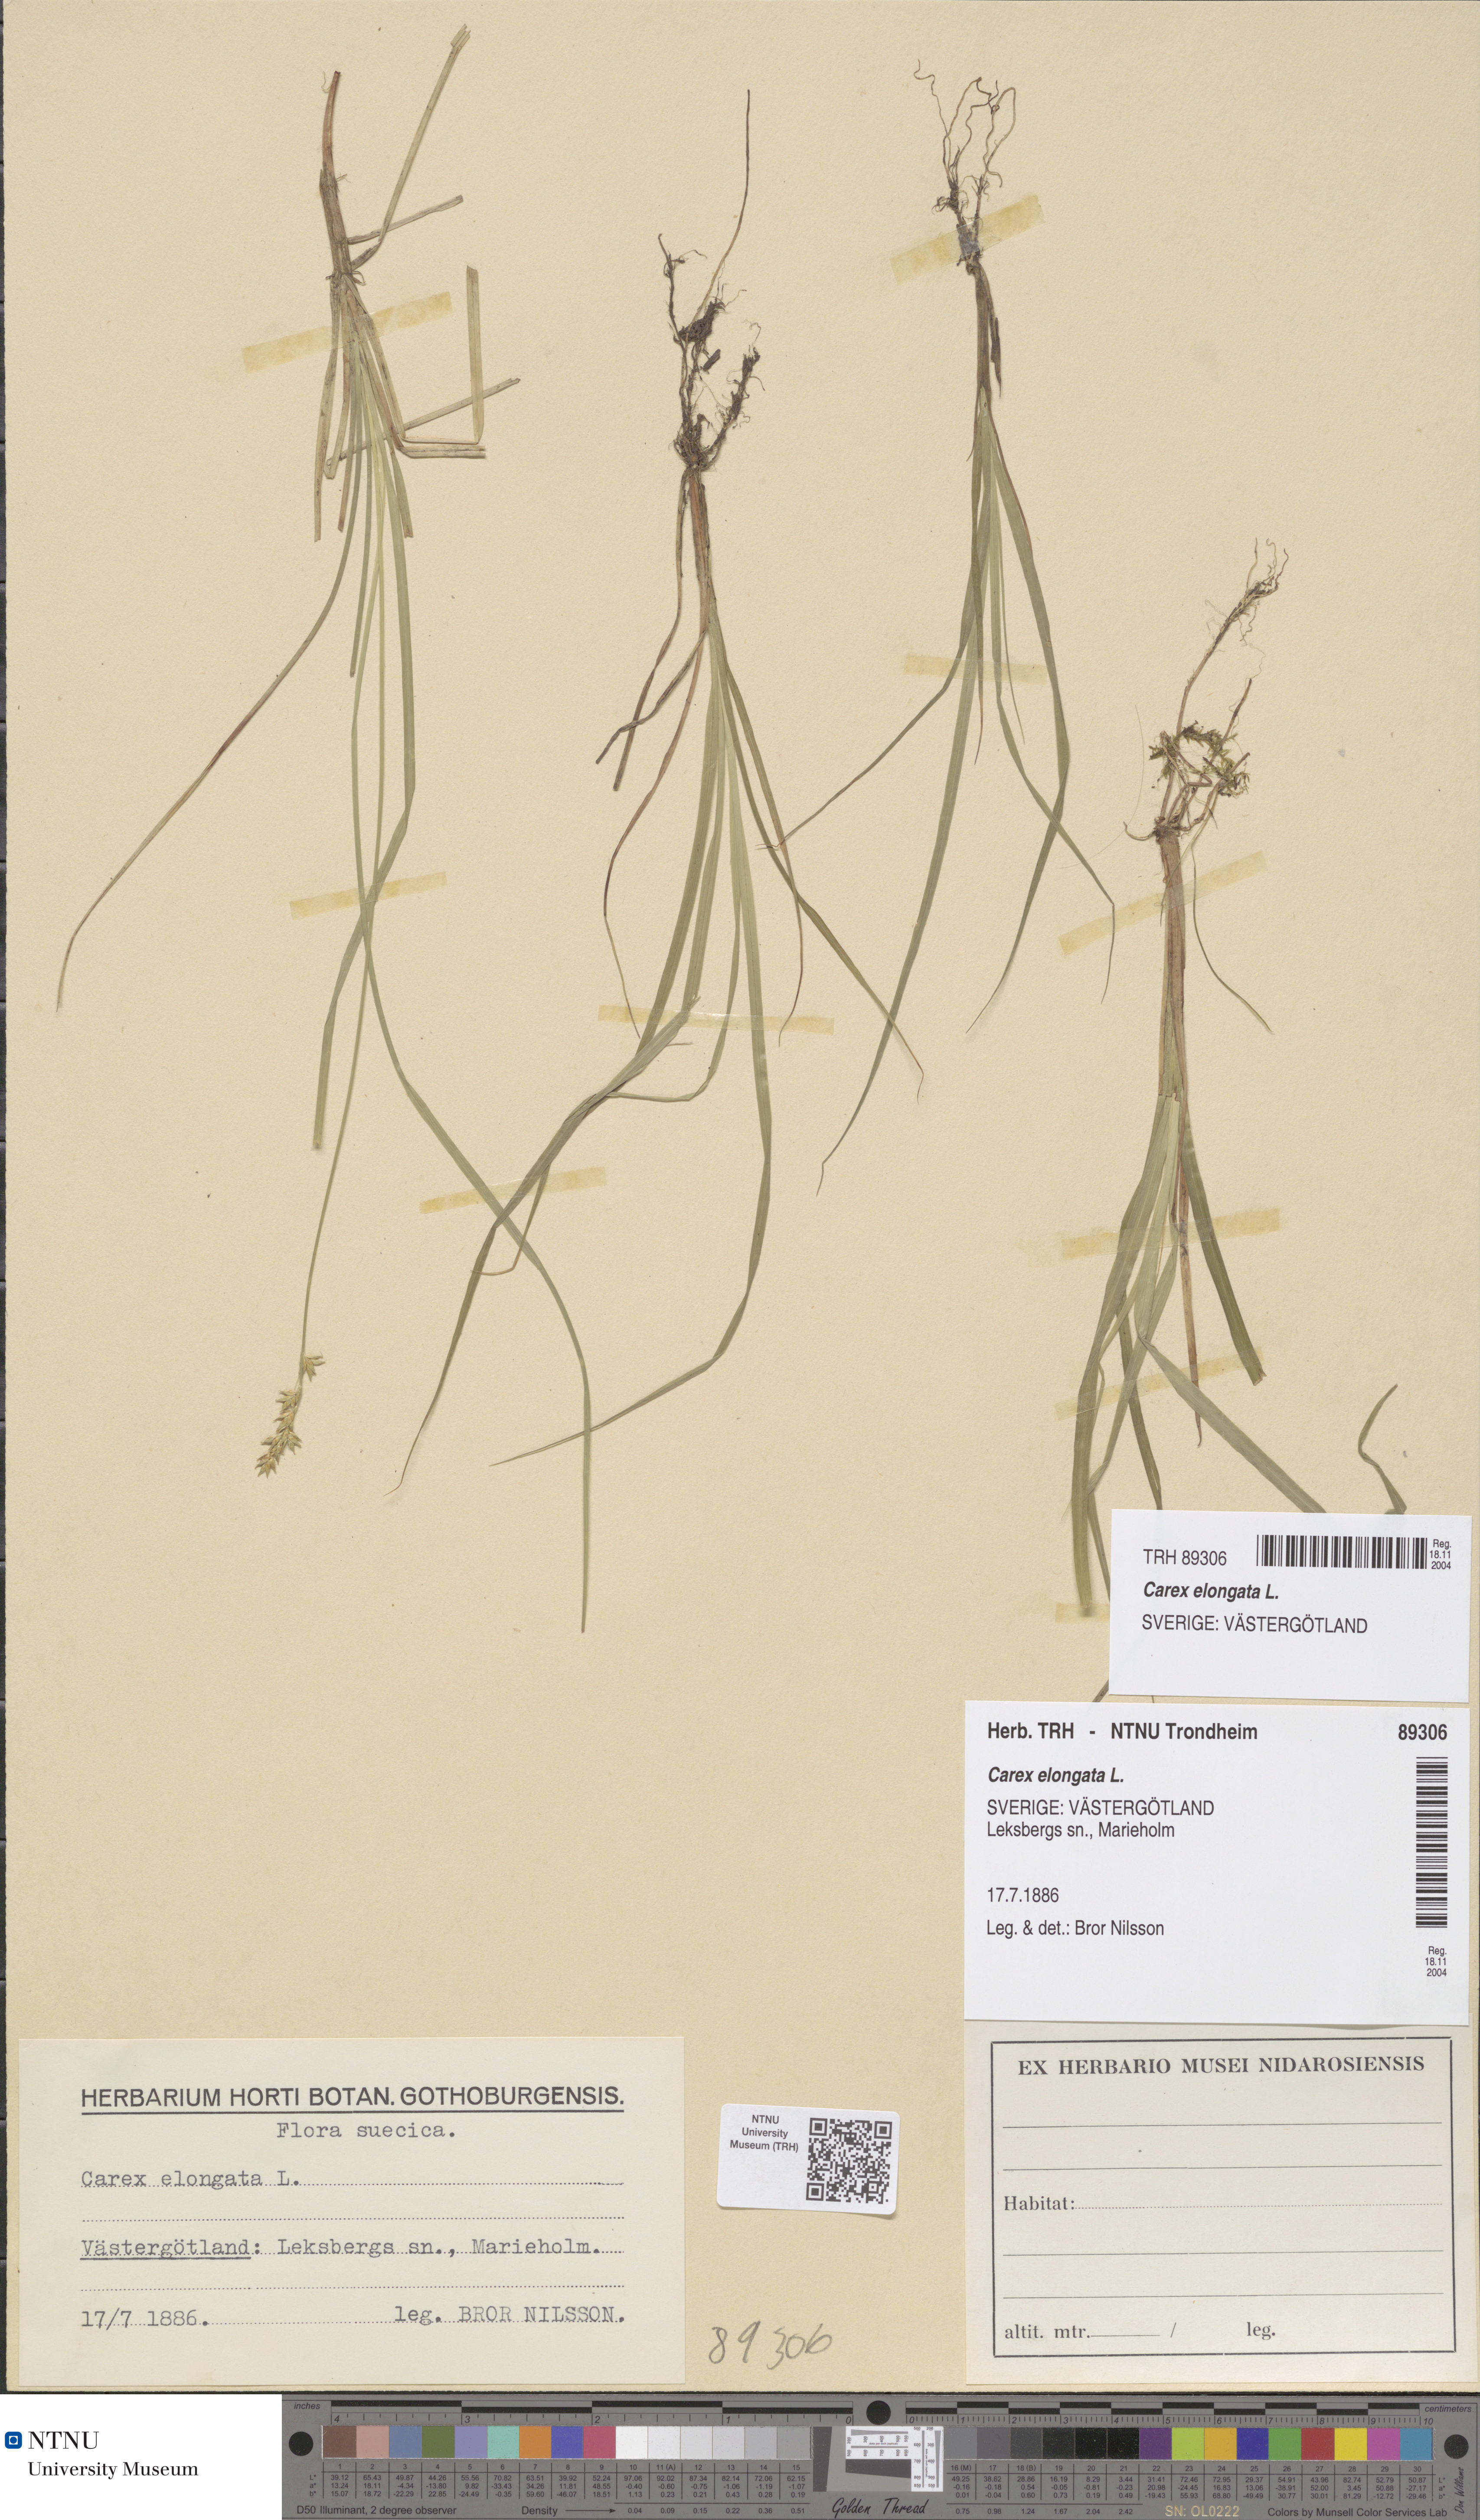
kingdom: Plantae
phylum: Tracheophyta
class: Liliopsida
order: Poales
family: Cyperaceae
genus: Carex
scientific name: Carex elongata
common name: Elongated sedge
